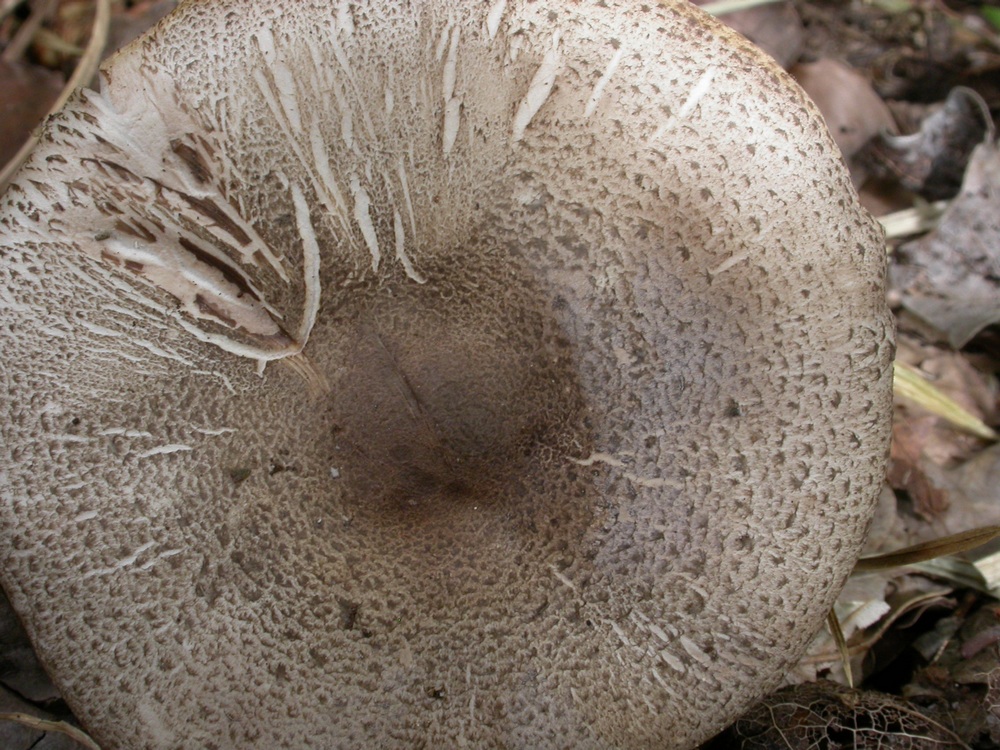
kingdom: Fungi
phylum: Basidiomycota
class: Agaricomycetes
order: Agaricales
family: Agaricaceae
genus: Agaricus
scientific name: Agaricus moelleri
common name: perlehøne-champignon
